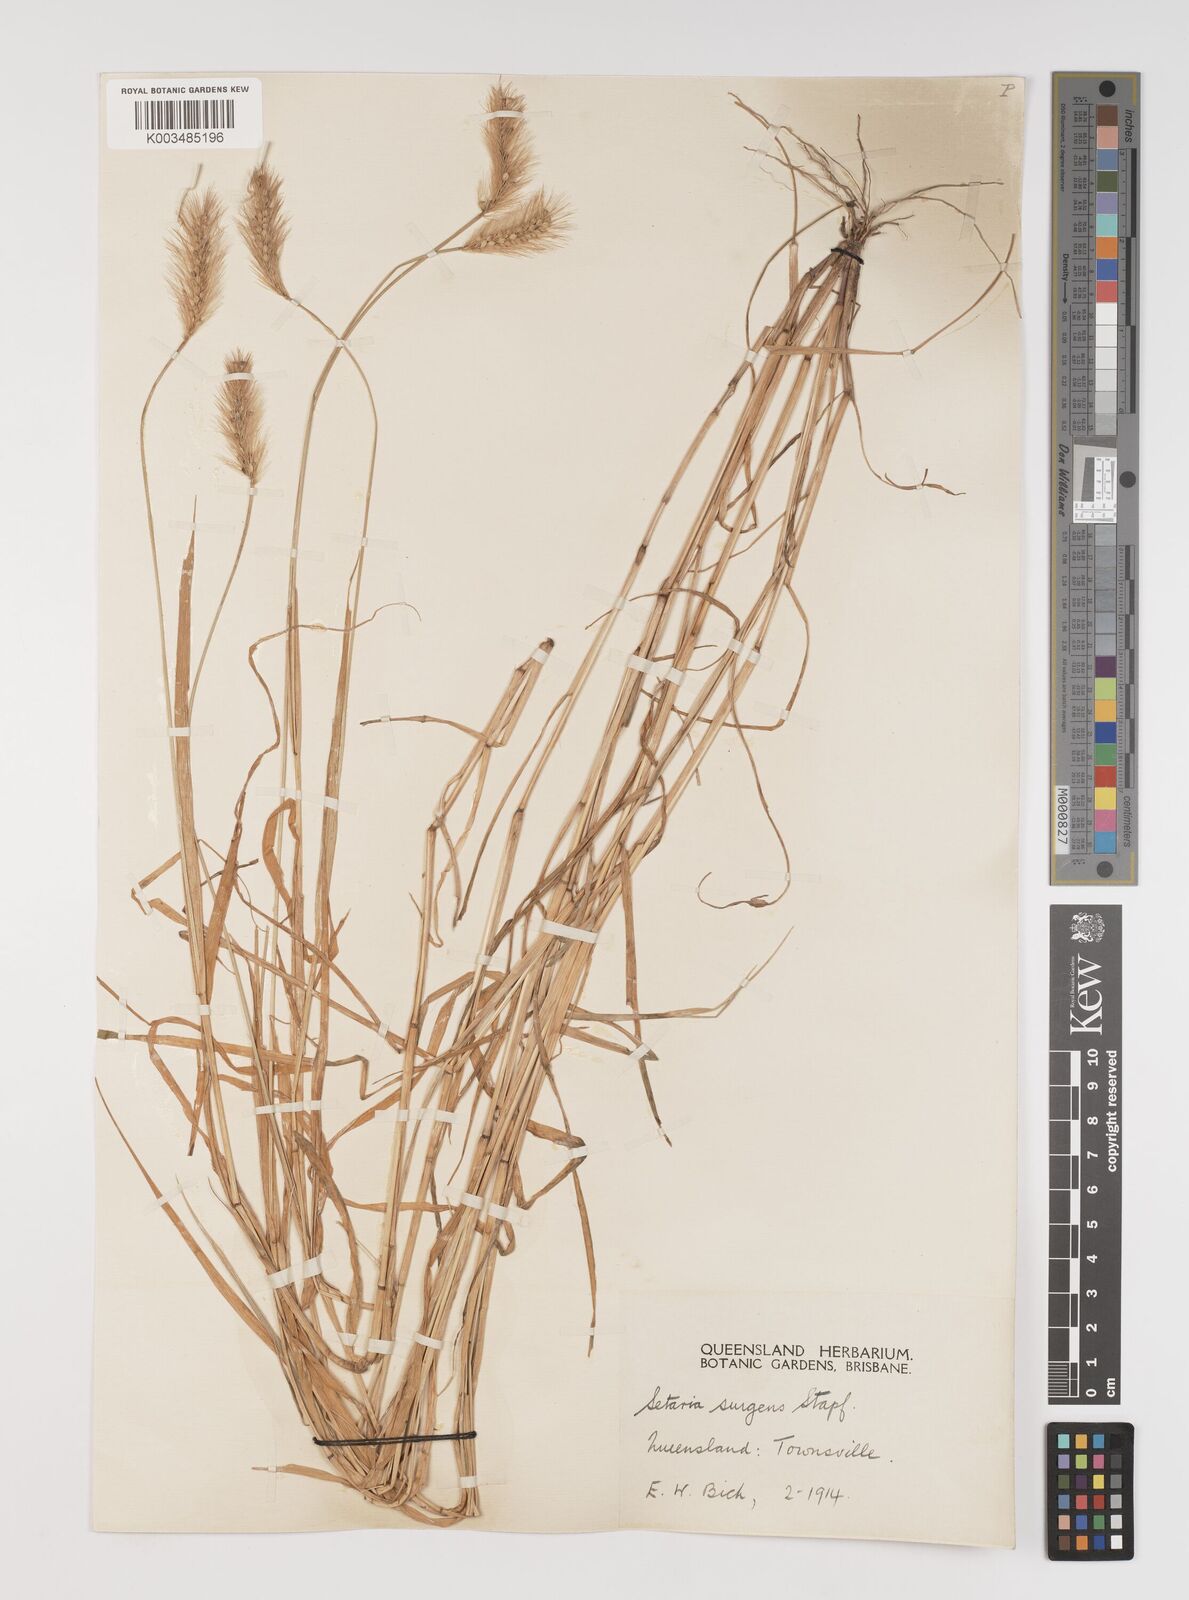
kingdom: Plantae
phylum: Tracheophyta
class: Liliopsida
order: Poales
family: Poaceae
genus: Setaria
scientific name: Setaria apiculata
